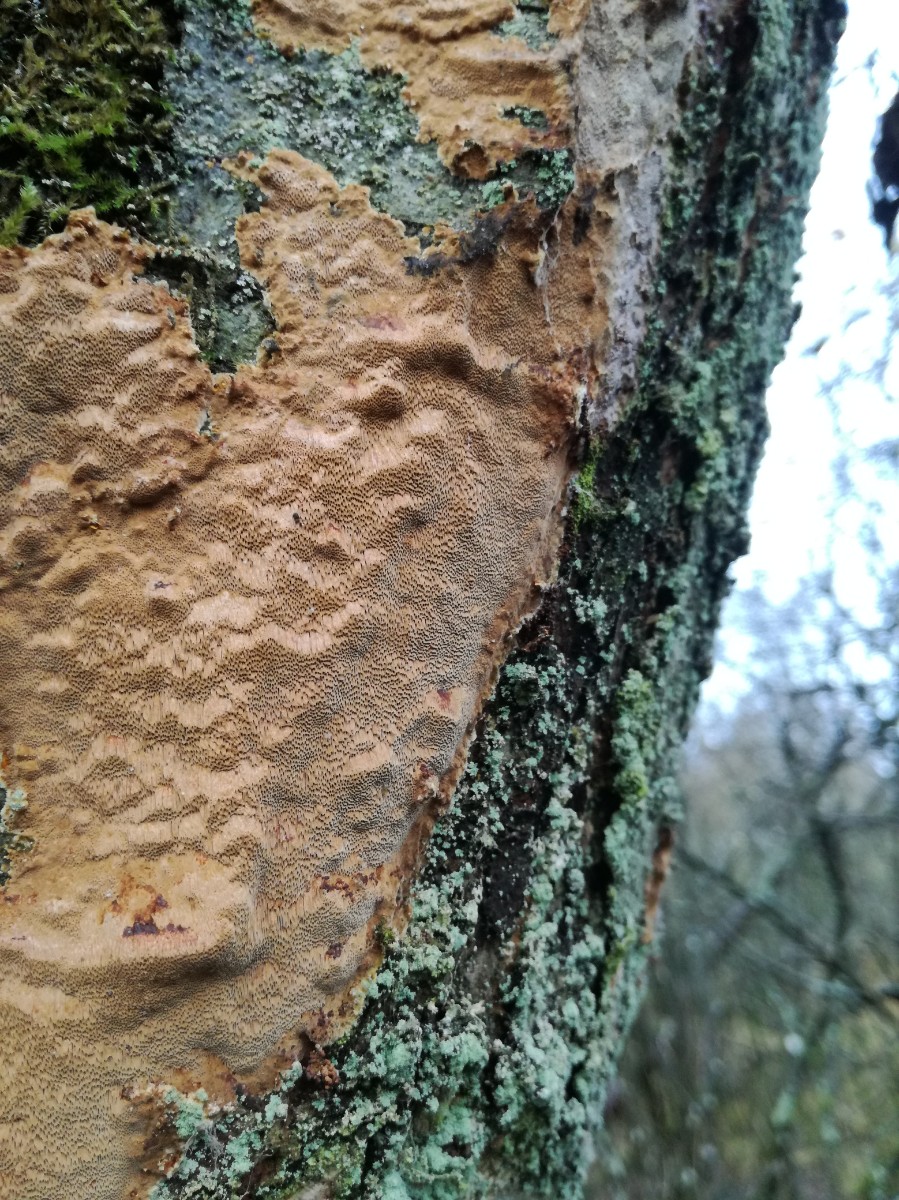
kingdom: Fungi
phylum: Basidiomycota
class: Agaricomycetes
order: Hymenochaetales
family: Hymenochaetaceae
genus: Fuscoporia
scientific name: Fuscoporia ferrea
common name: skorpe-ildporesvamp
